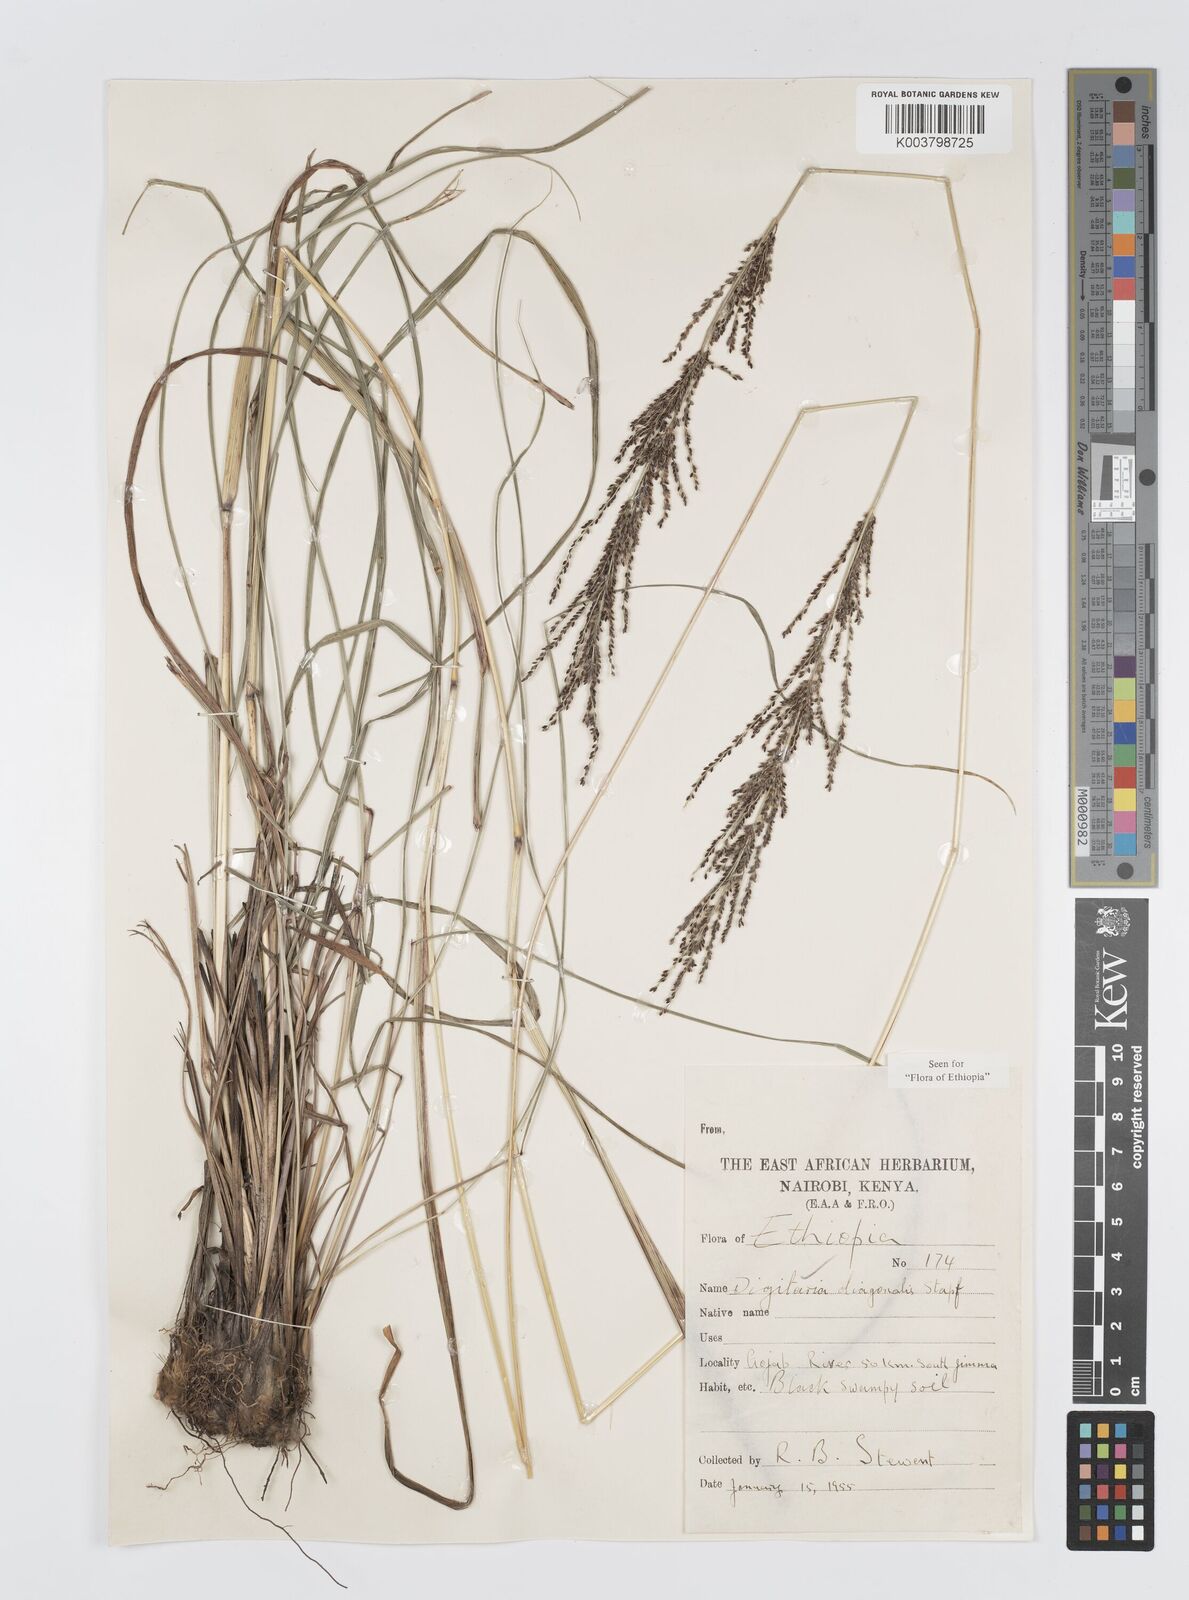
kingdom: Plantae
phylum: Tracheophyta
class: Liliopsida
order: Poales
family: Poaceae
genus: Digitaria
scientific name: Digitaria diagonalis
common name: Brown-seed finger grass
